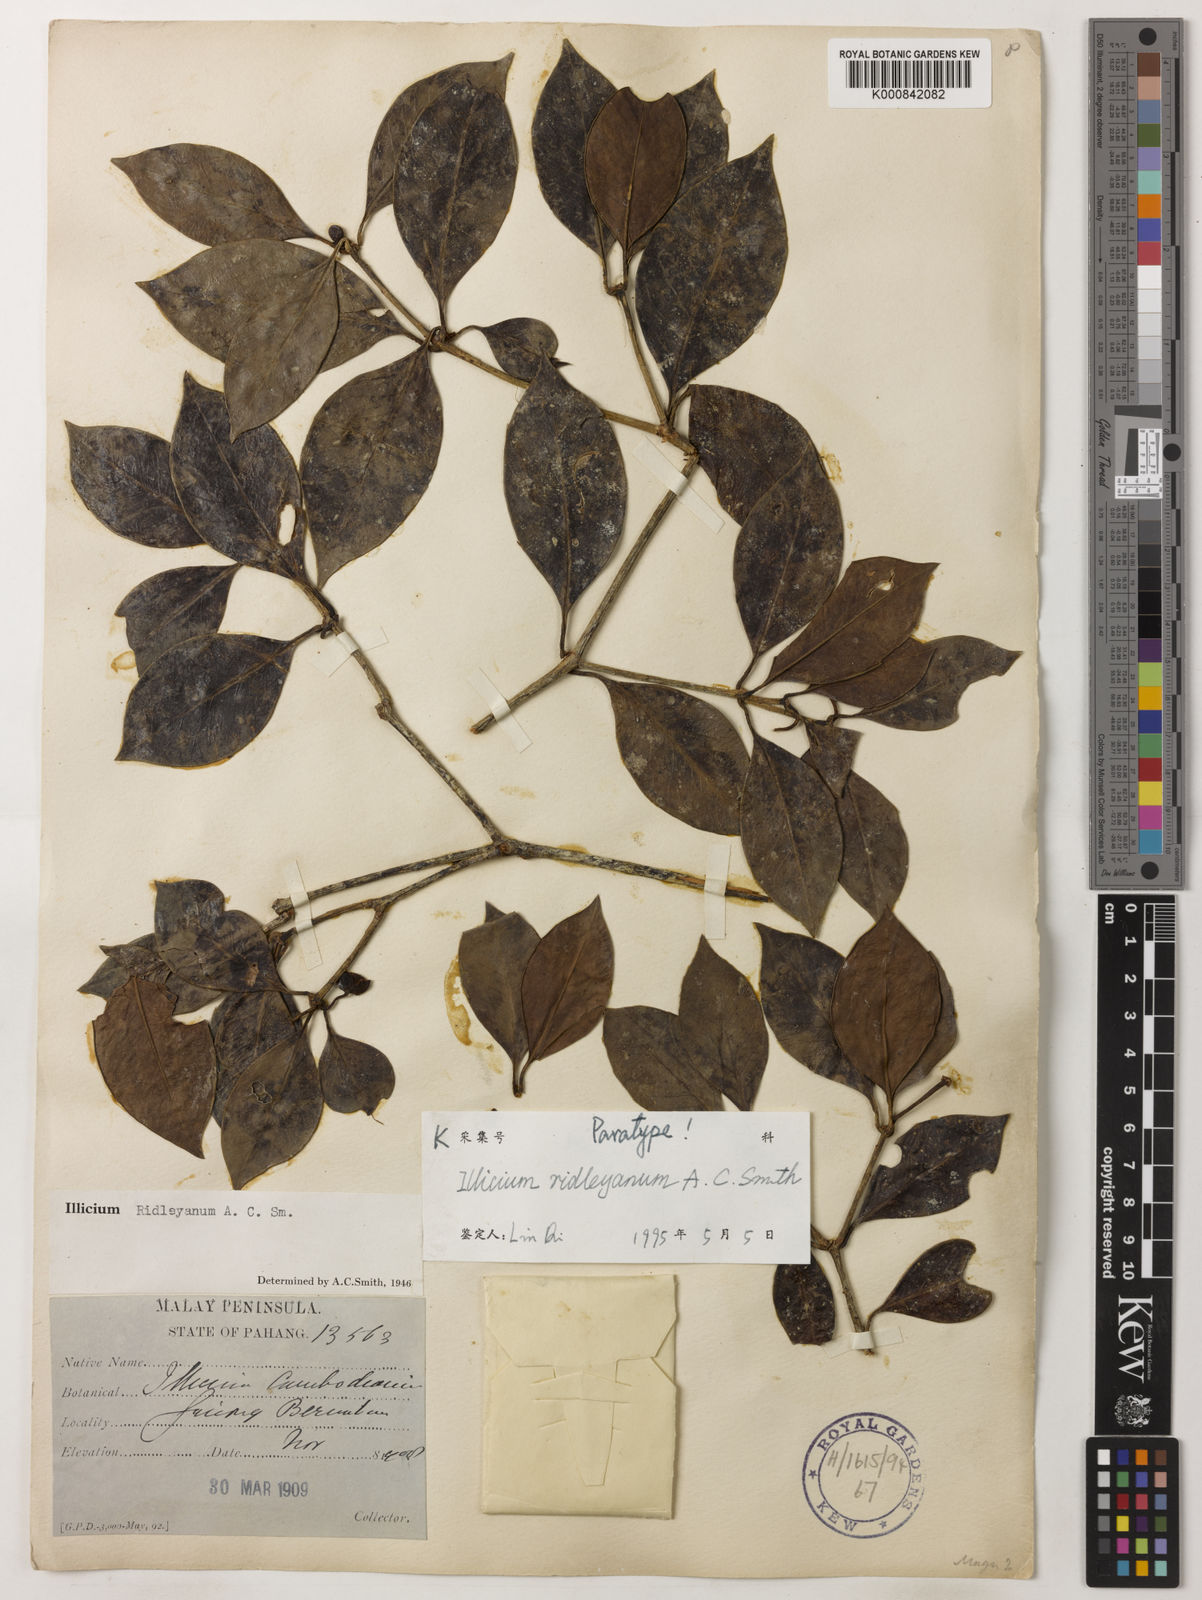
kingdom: Plantae
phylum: Tracheophyta
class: Magnoliopsida
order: Austrobaileyales
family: Schisandraceae
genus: Illicium
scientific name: Illicium ridleyanum
